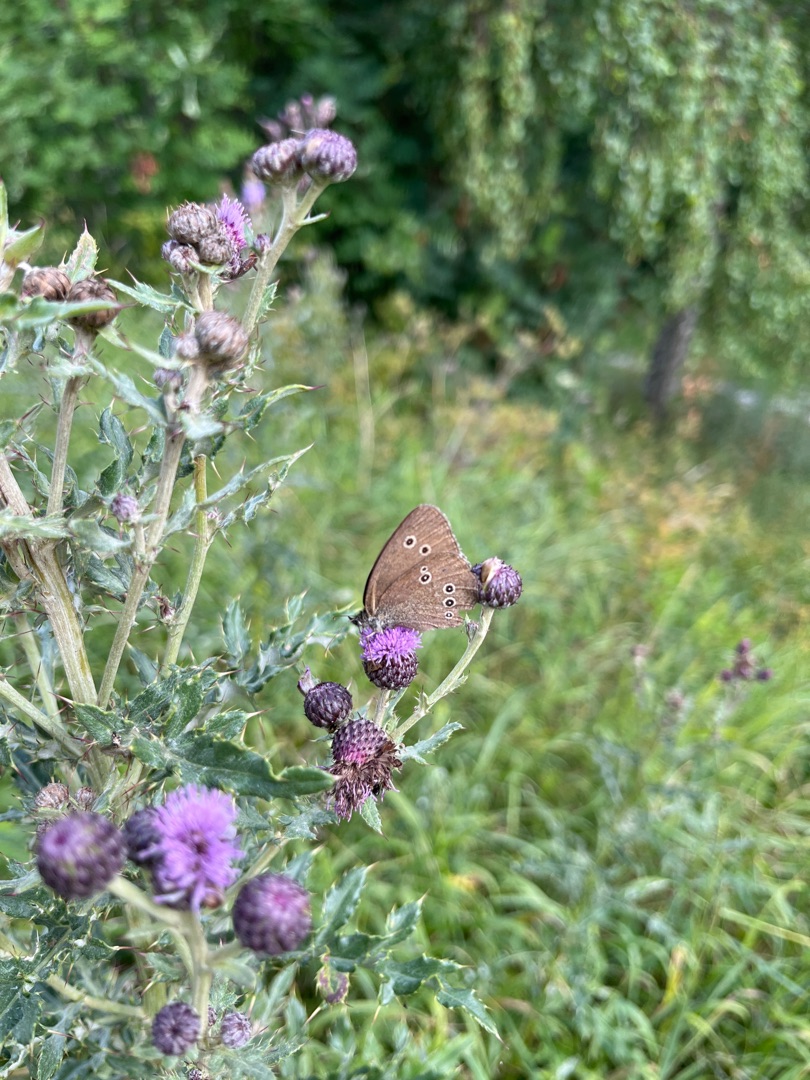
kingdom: Animalia
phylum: Arthropoda
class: Insecta
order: Lepidoptera
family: Nymphalidae
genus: Aphantopus
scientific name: Aphantopus hyperantus
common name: Engrandøje
